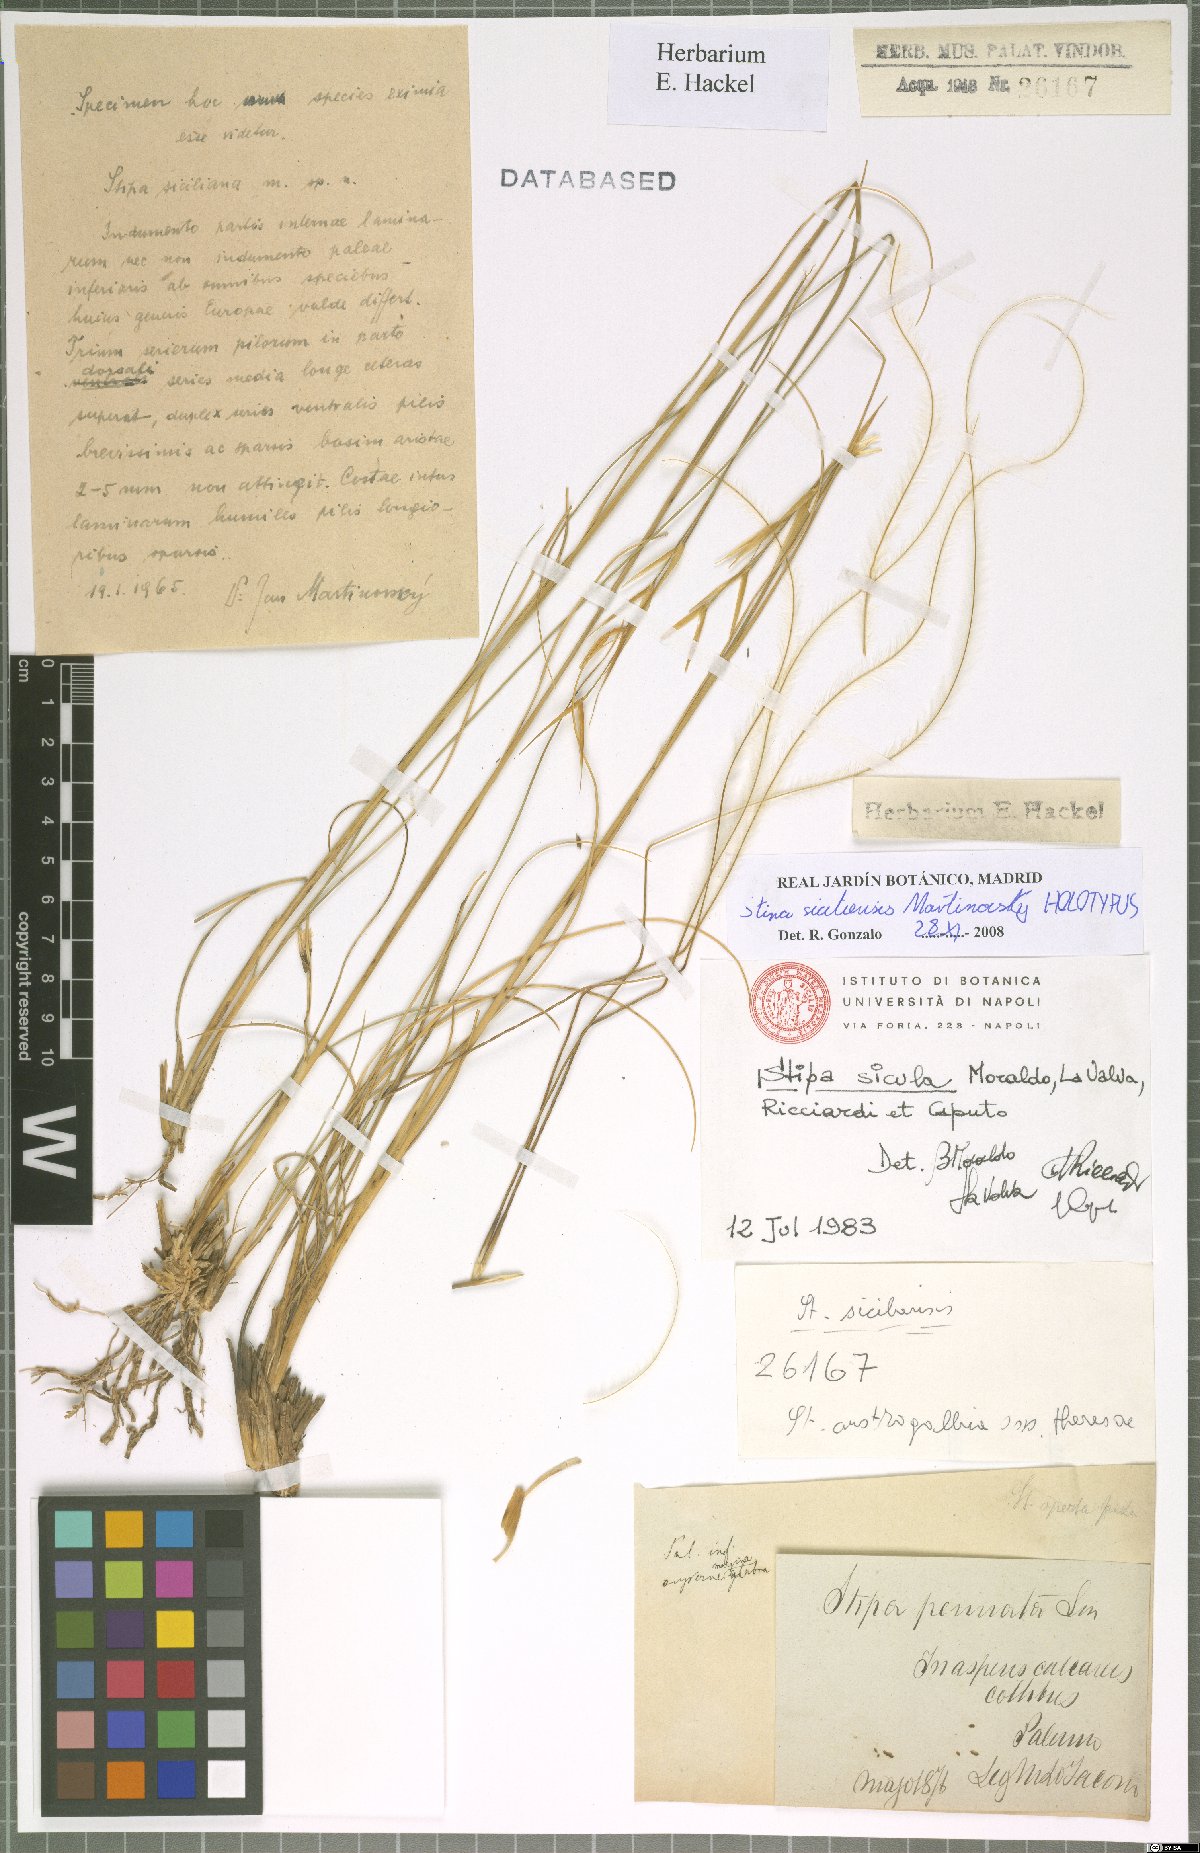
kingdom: Plantae
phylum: Tracheophyta
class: Liliopsida
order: Poales
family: Poaceae
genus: Stipa
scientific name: Stipa sicula
